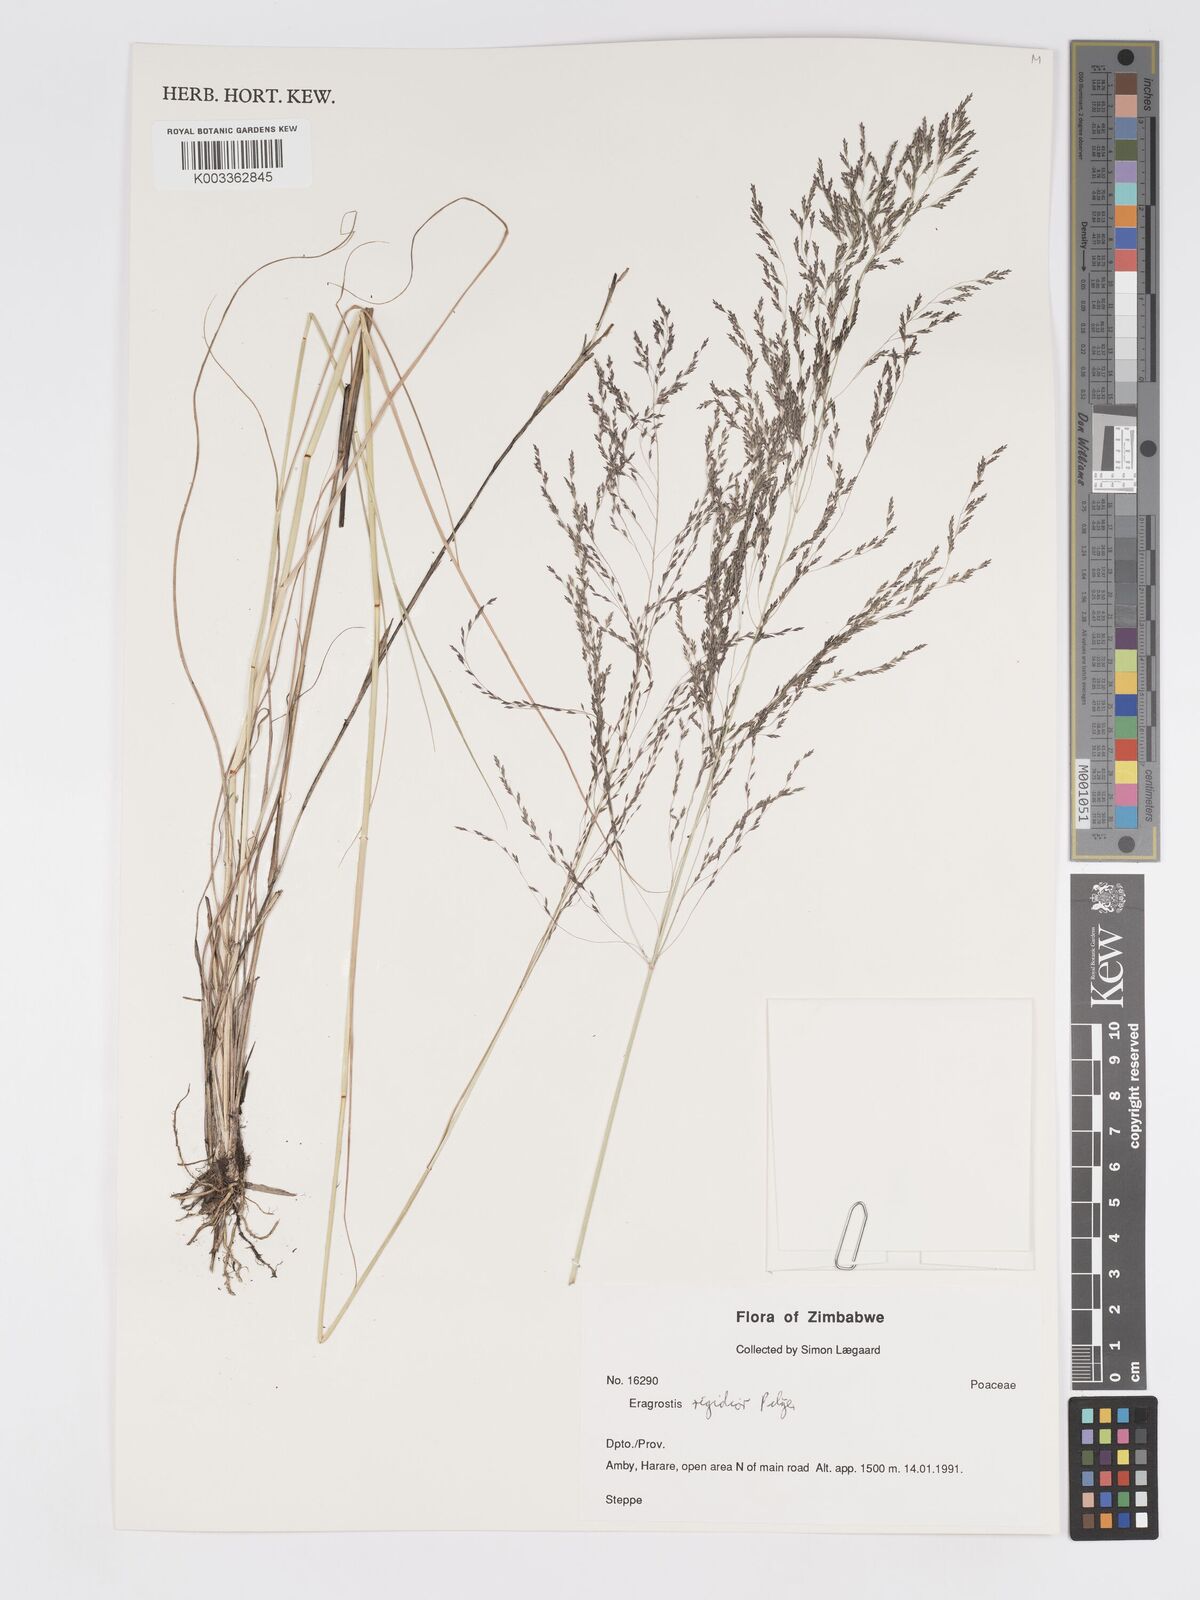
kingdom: Plantae
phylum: Tracheophyta
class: Liliopsida
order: Poales
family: Poaceae
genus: Eragrostis
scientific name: Eragrostis cylindriflora
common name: Cylinderflower lovegrass
